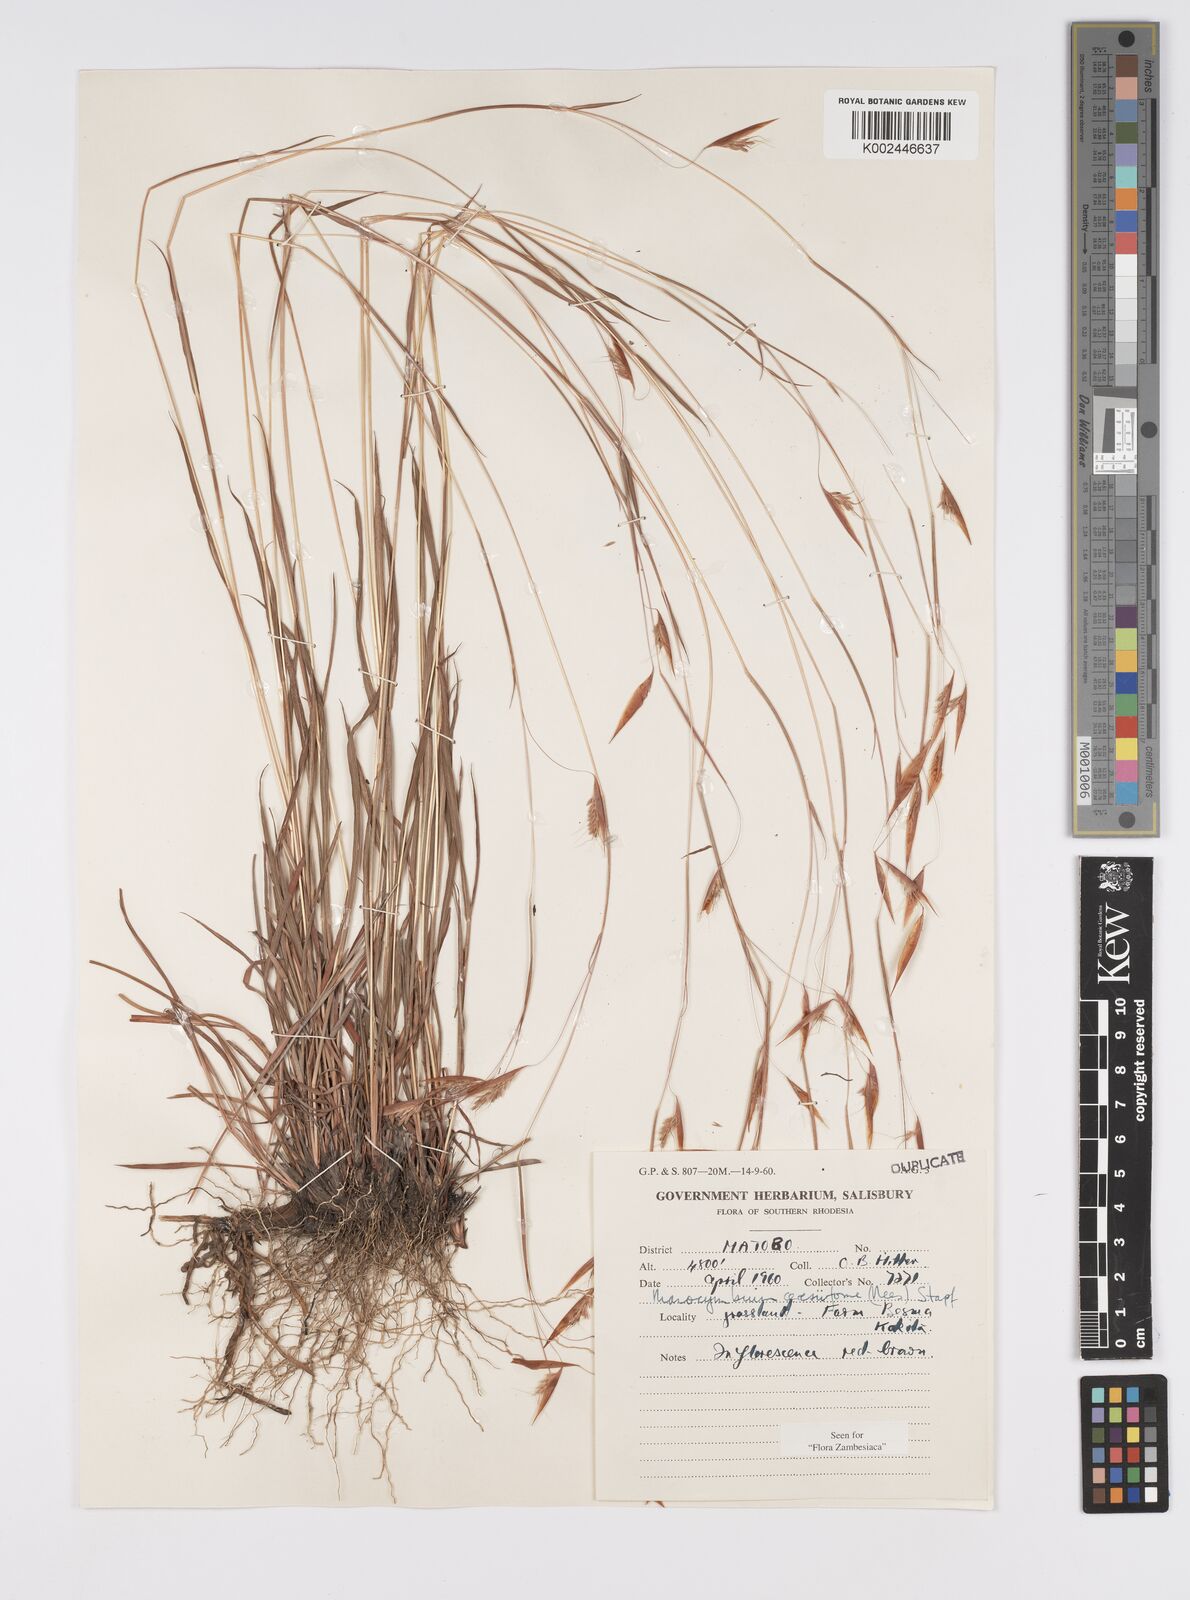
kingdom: Plantae
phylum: Tracheophyta
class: Liliopsida
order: Poales
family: Poaceae
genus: Monocymbium
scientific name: Monocymbium ceresiiforme
